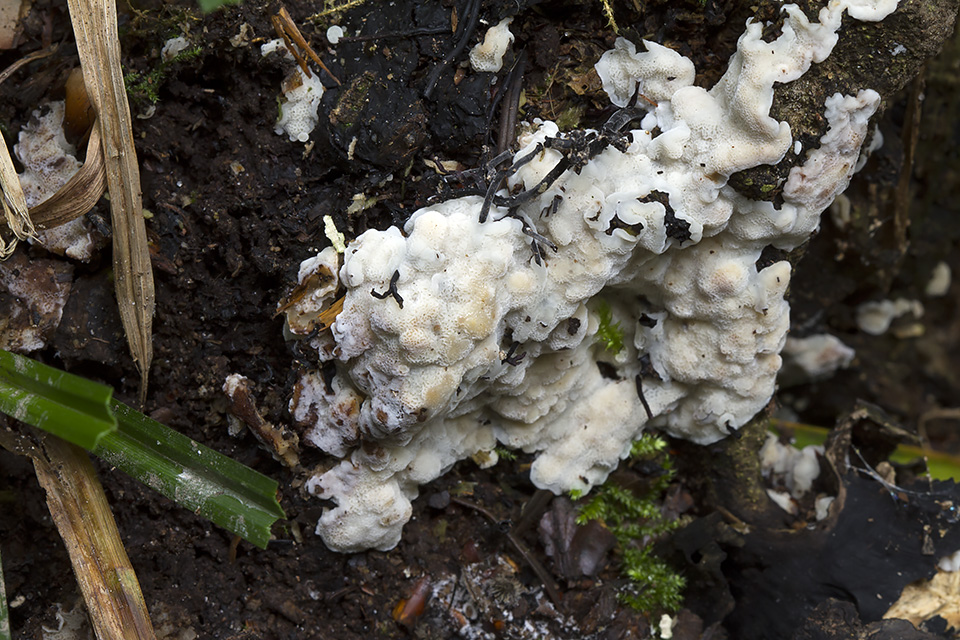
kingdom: Fungi
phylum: Basidiomycota
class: Agaricomycetes
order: Polyporales
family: Meripilaceae
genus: Rigidoporus
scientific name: Rigidoporus sanguinolentus
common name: blod-skorpeporesvamp
